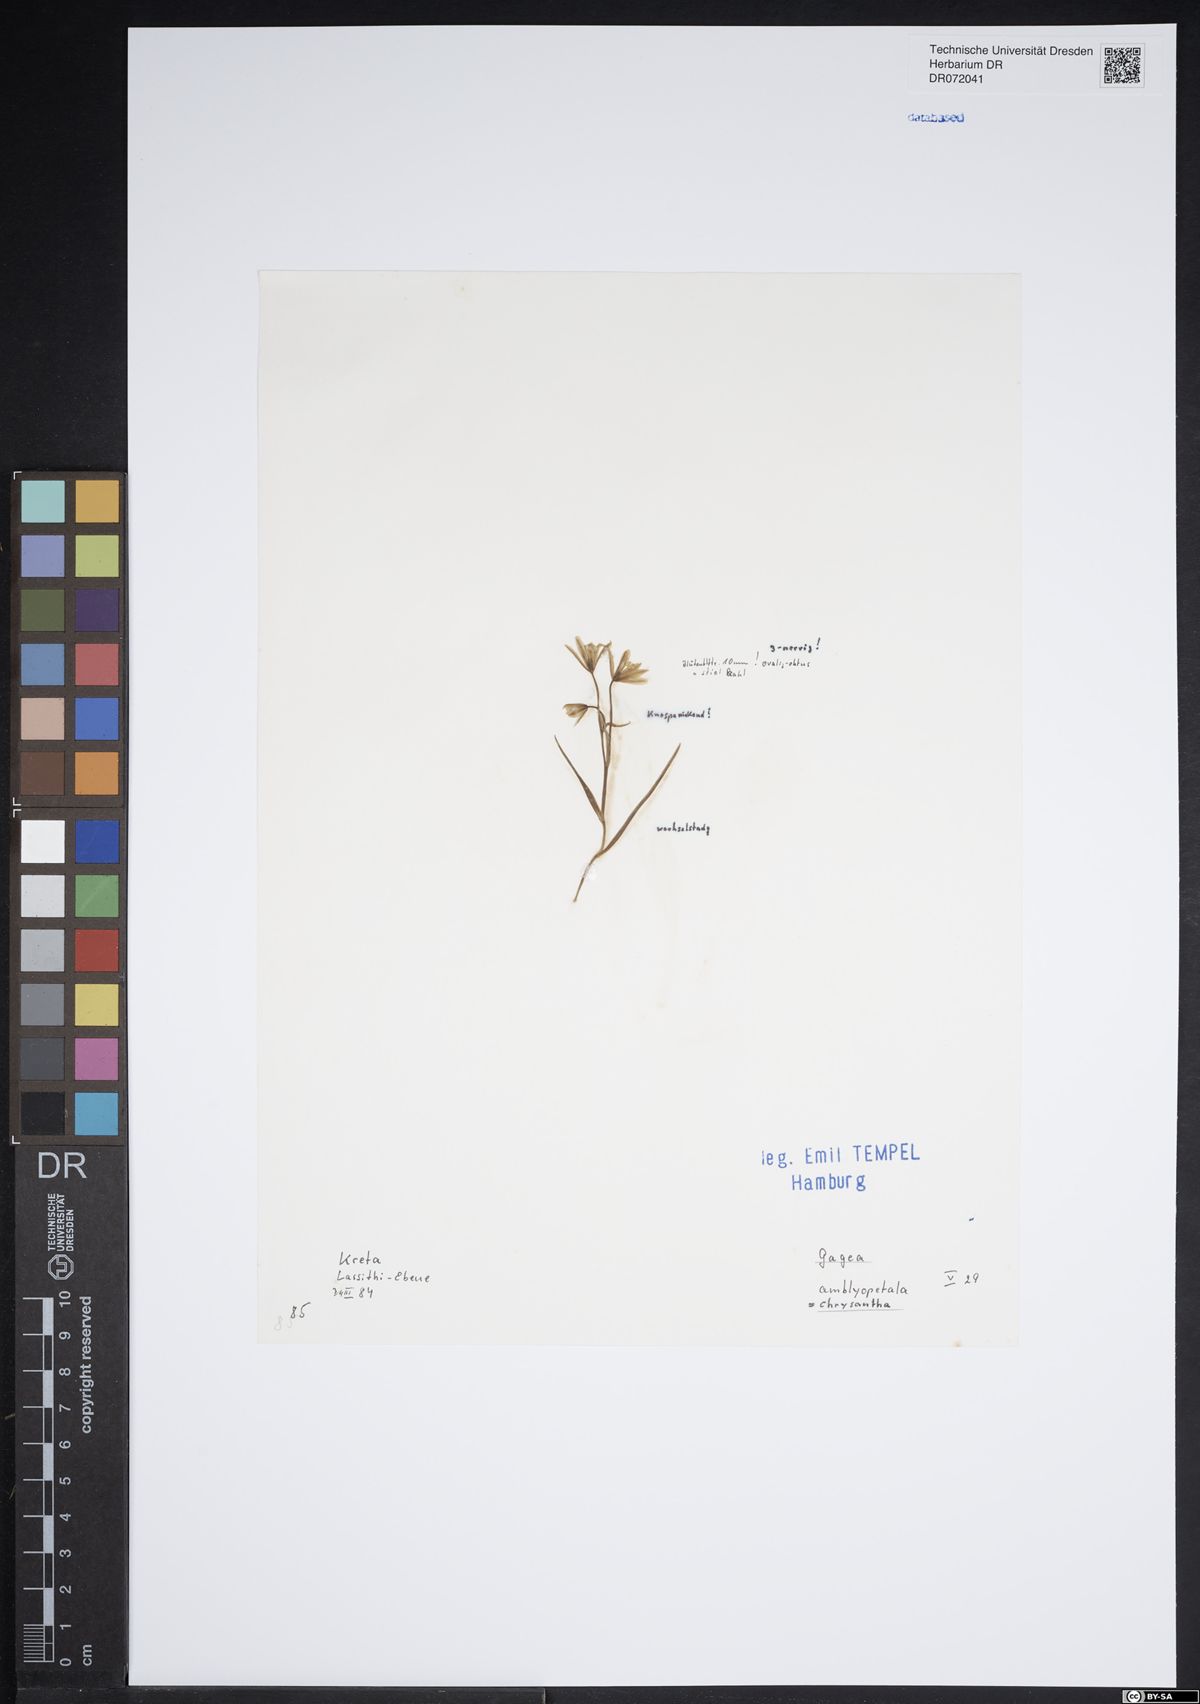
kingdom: Plantae
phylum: Tracheophyta
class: Liliopsida
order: Liliales
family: Liliaceae
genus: Gagea
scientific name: Gagea chrysantha
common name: Golden gagea
